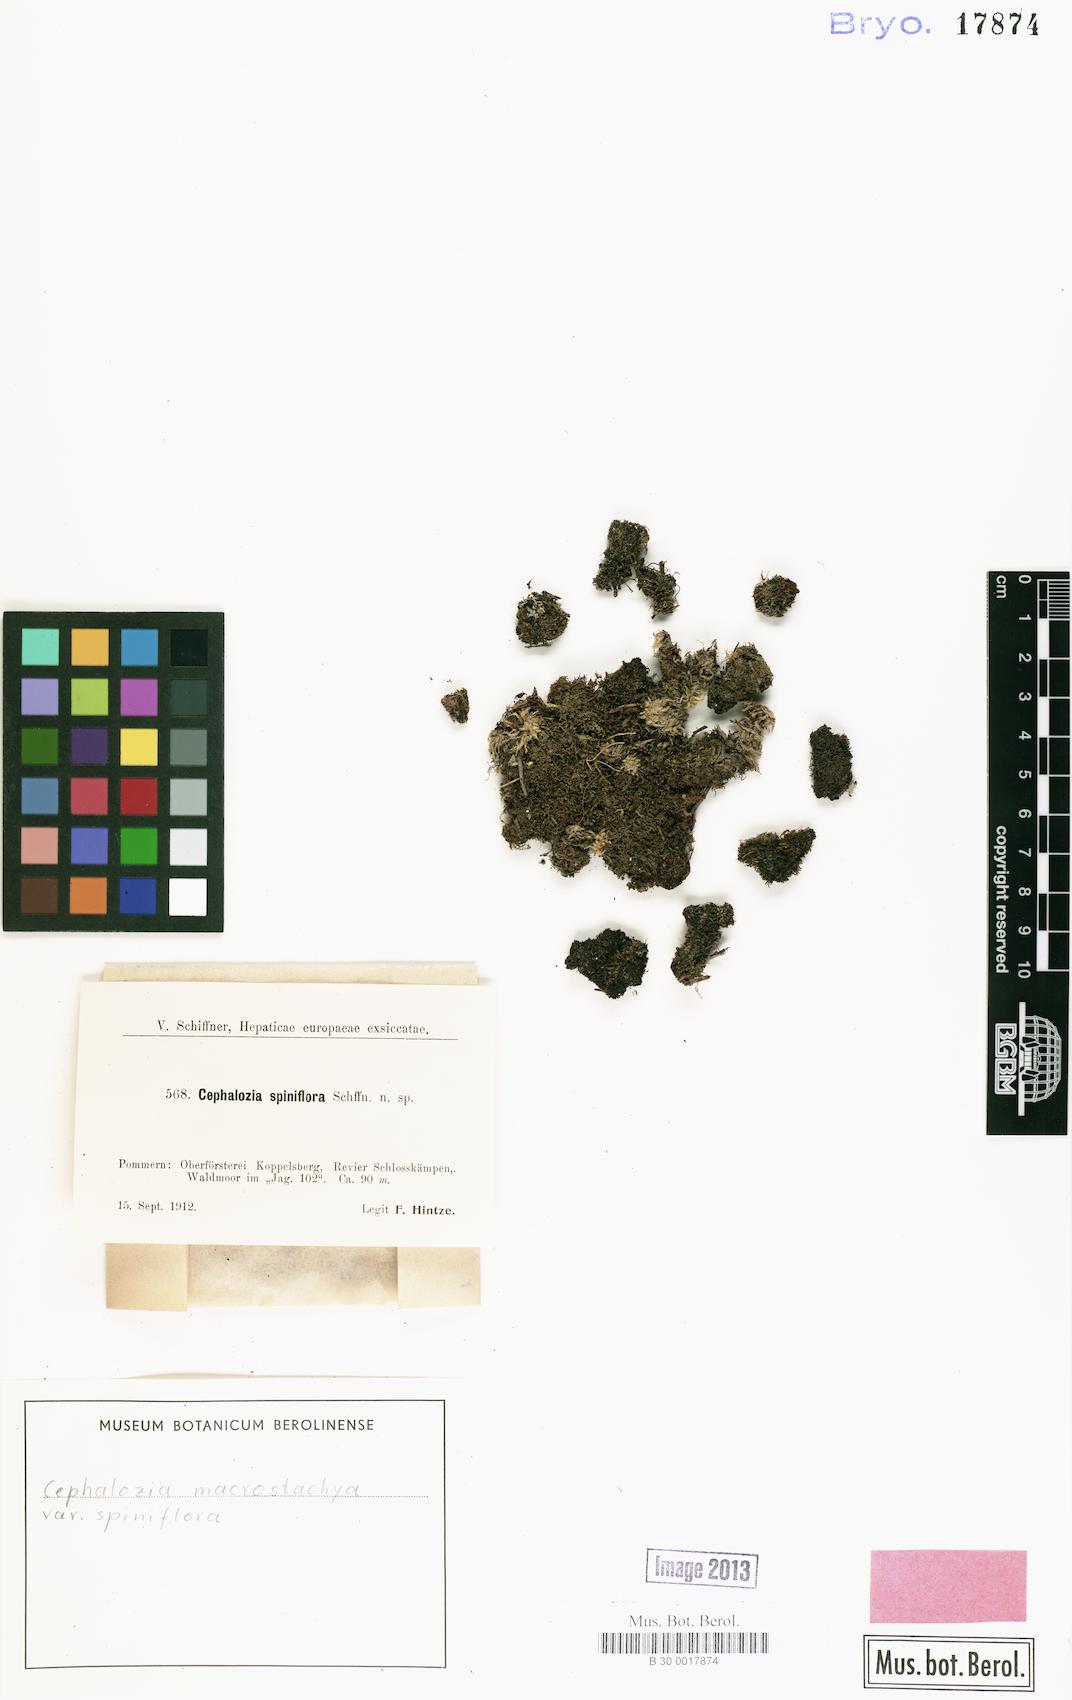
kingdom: Plantae
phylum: Marchantiophyta
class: Jungermanniopsida
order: Jungermanniales
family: Cephaloziaceae
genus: Fuscocephaloziopsis
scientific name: Fuscocephaloziopsis macrostachya
